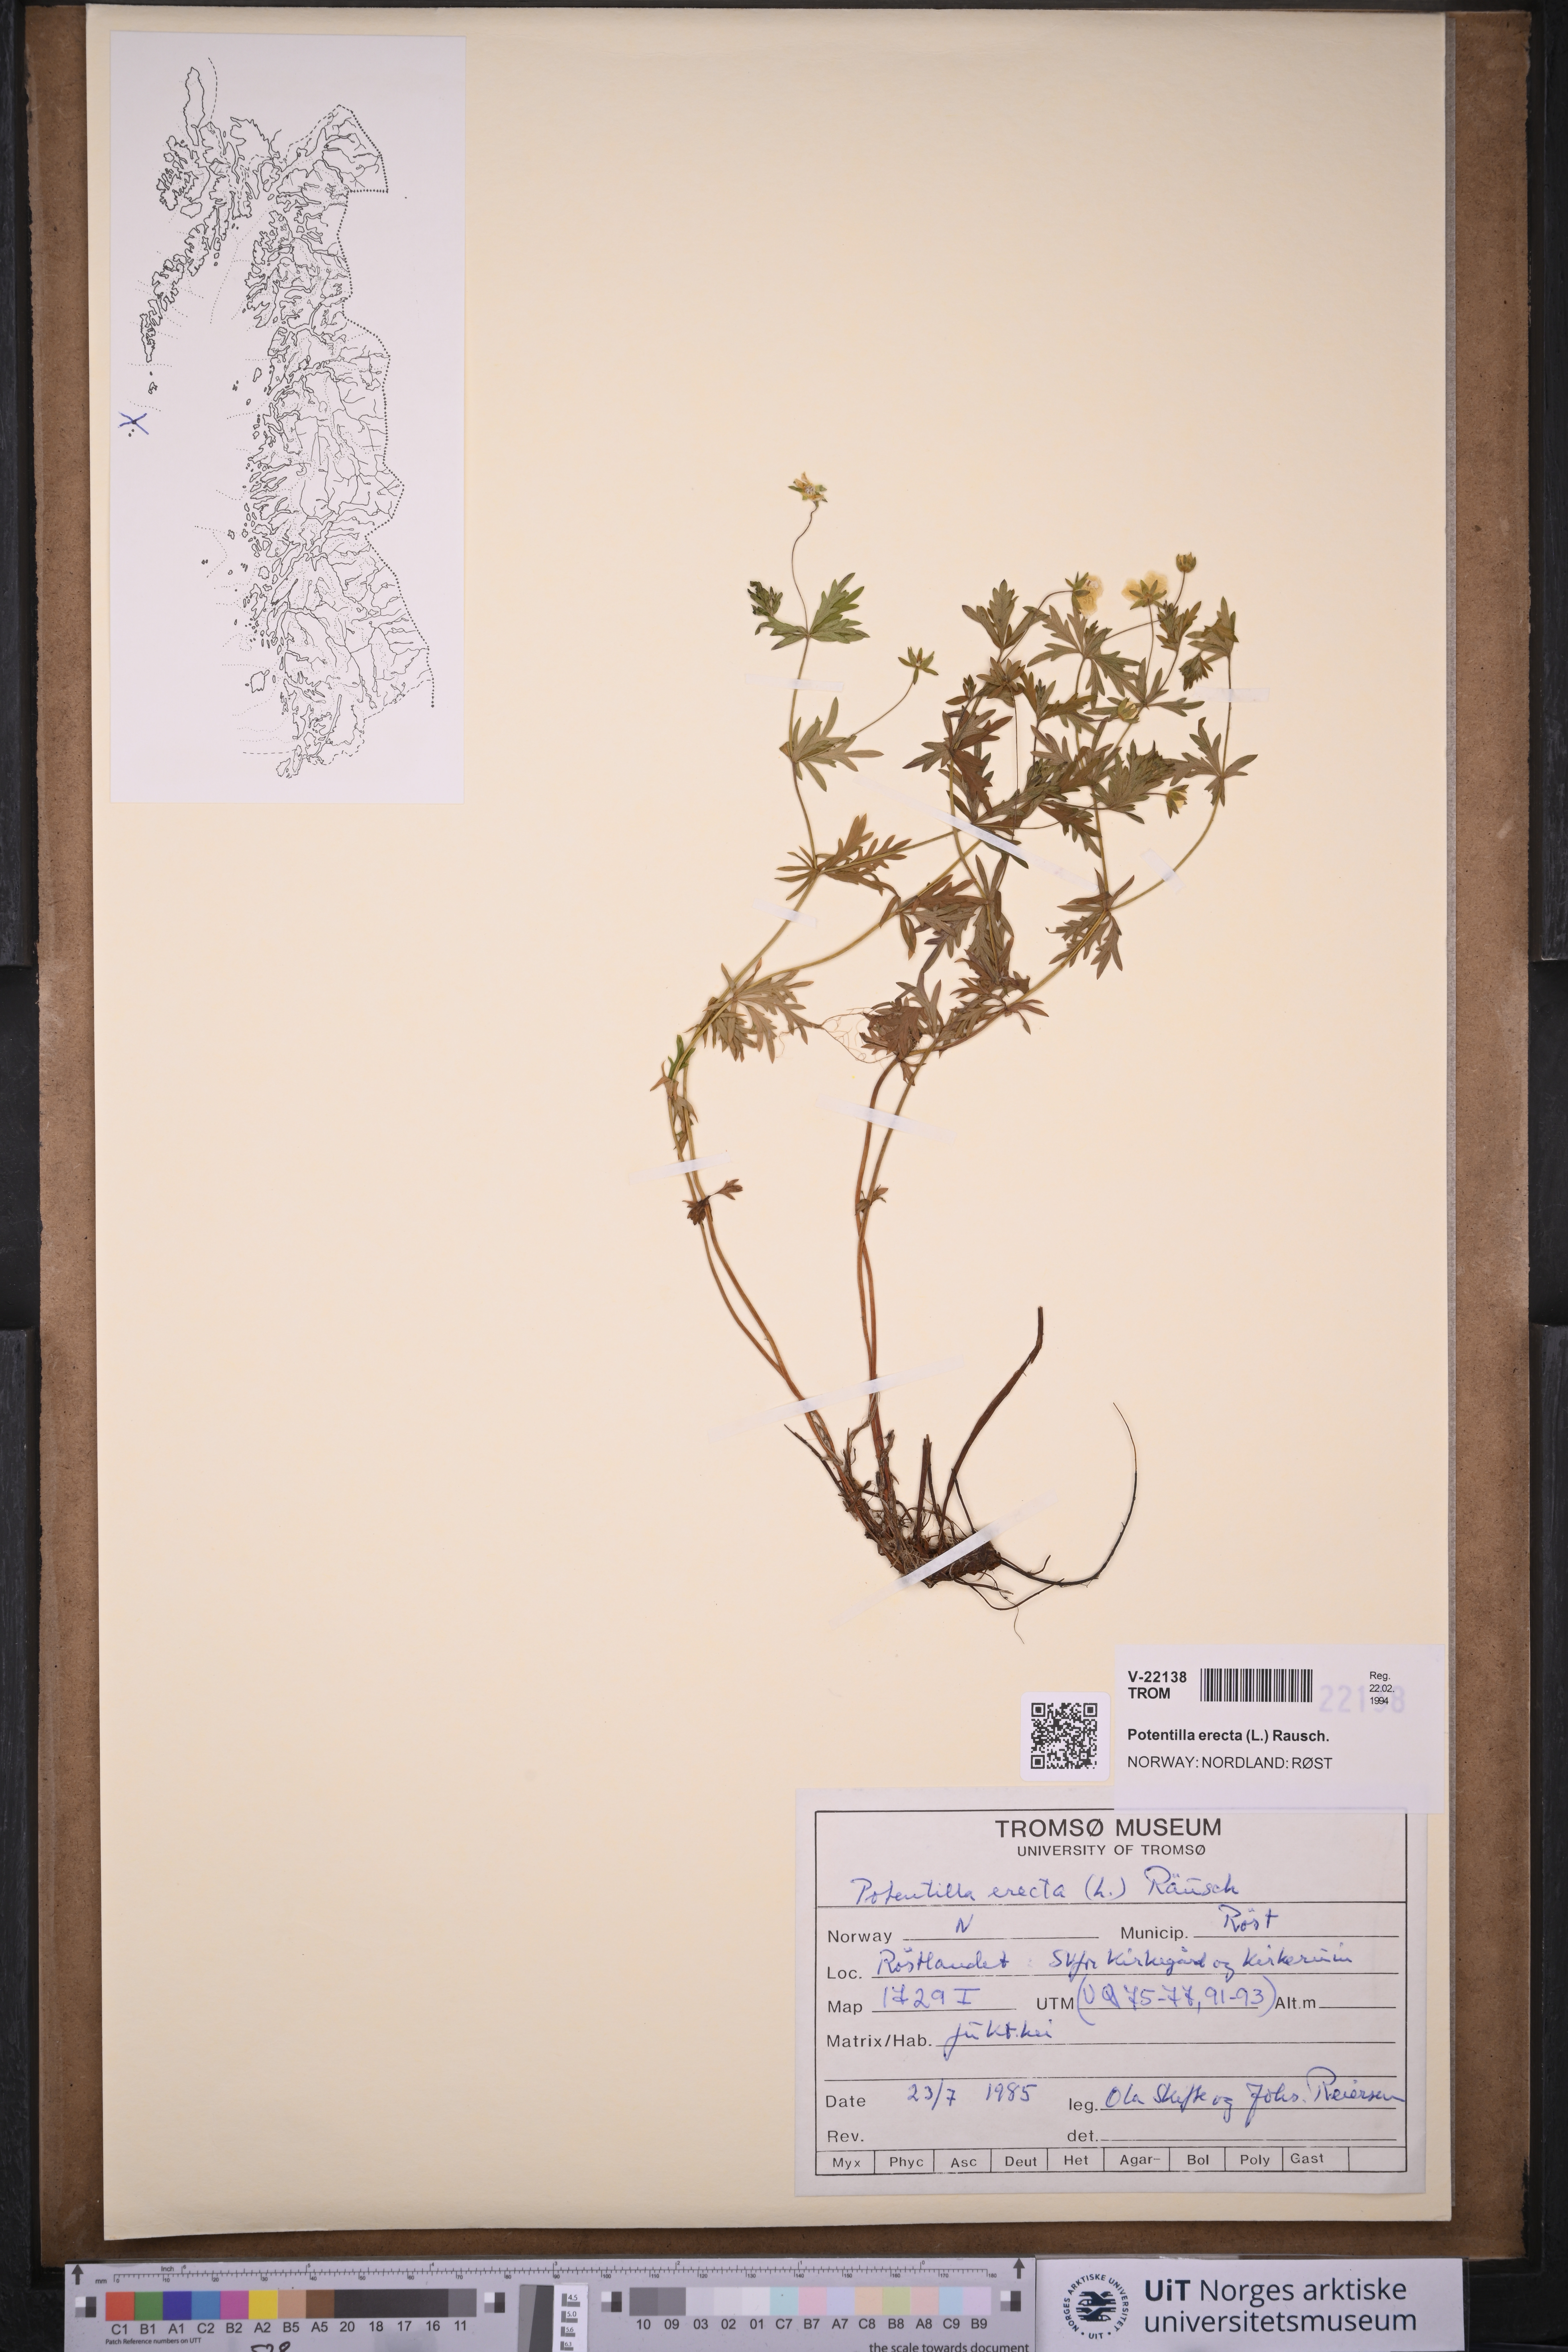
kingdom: Plantae
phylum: Tracheophyta
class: Magnoliopsida
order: Rosales
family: Rosaceae
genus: Potentilla
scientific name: Potentilla erecta
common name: Tormentil
